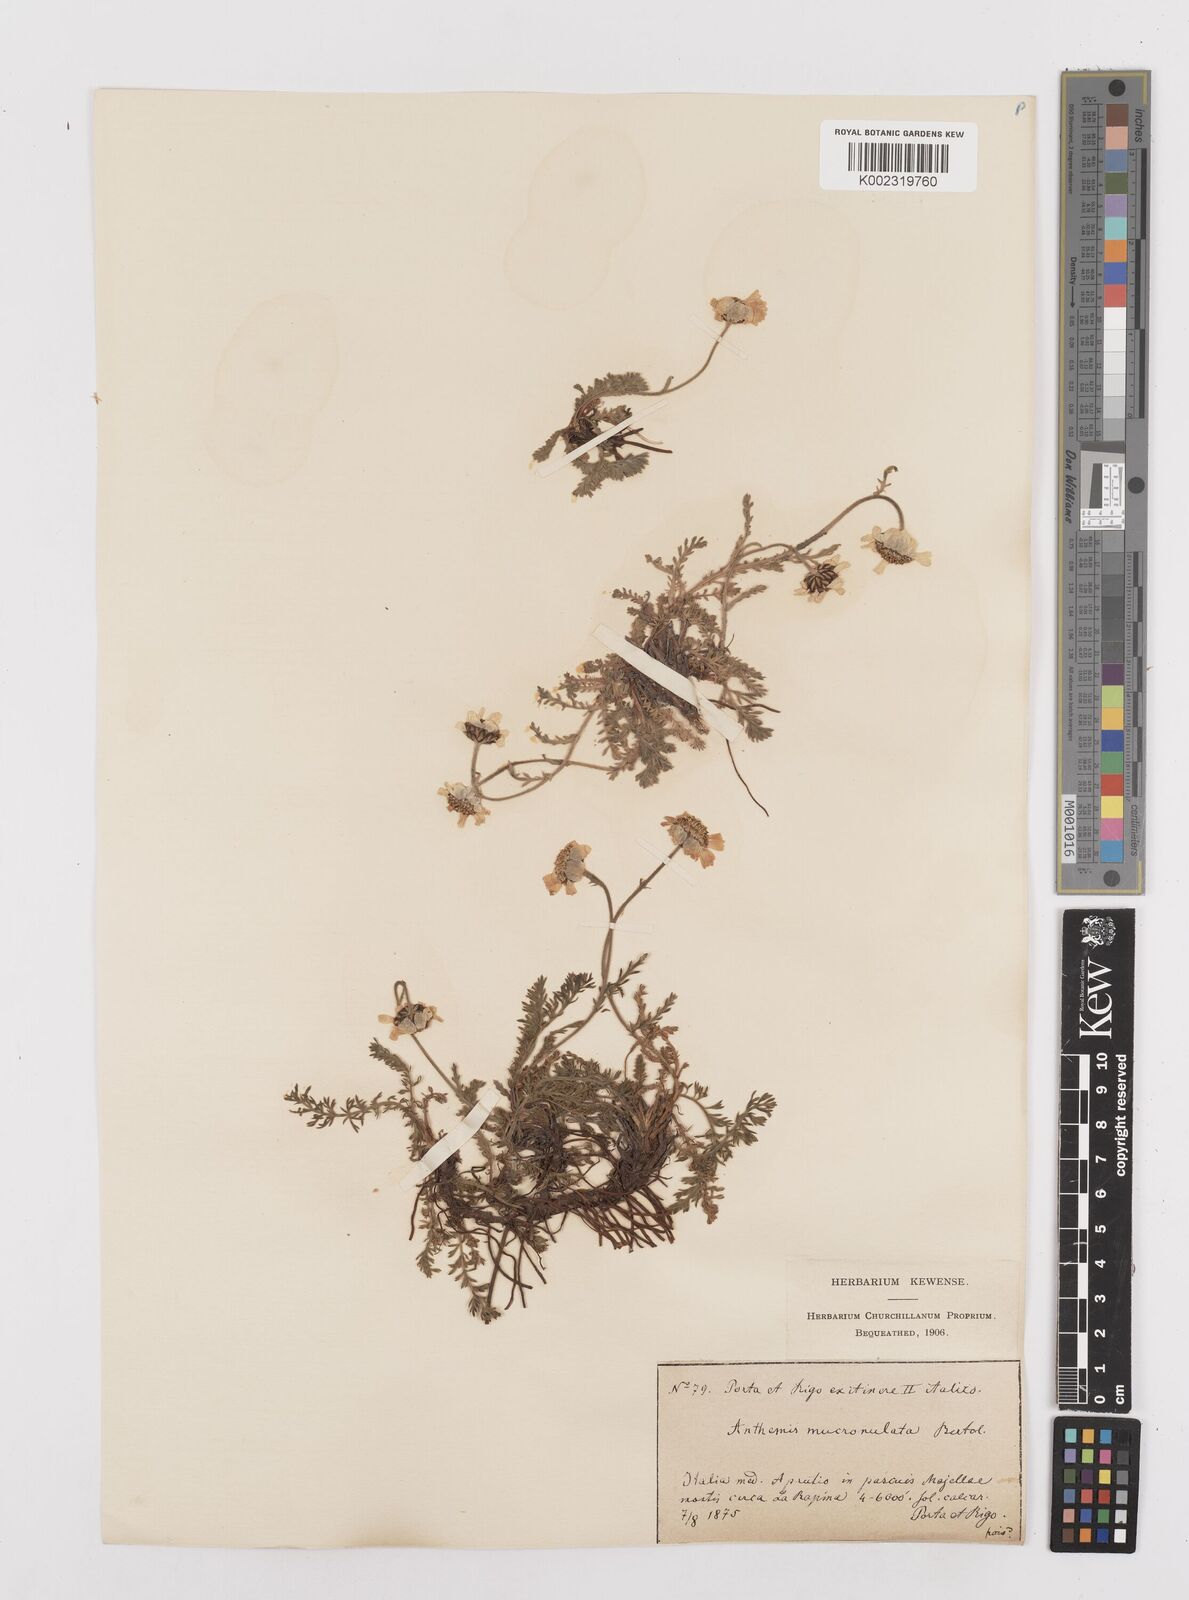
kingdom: Plantae
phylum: Tracheophyta
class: Magnoliopsida
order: Asterales
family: Asteraceae
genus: Achillea
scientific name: Achillea barrelieri
